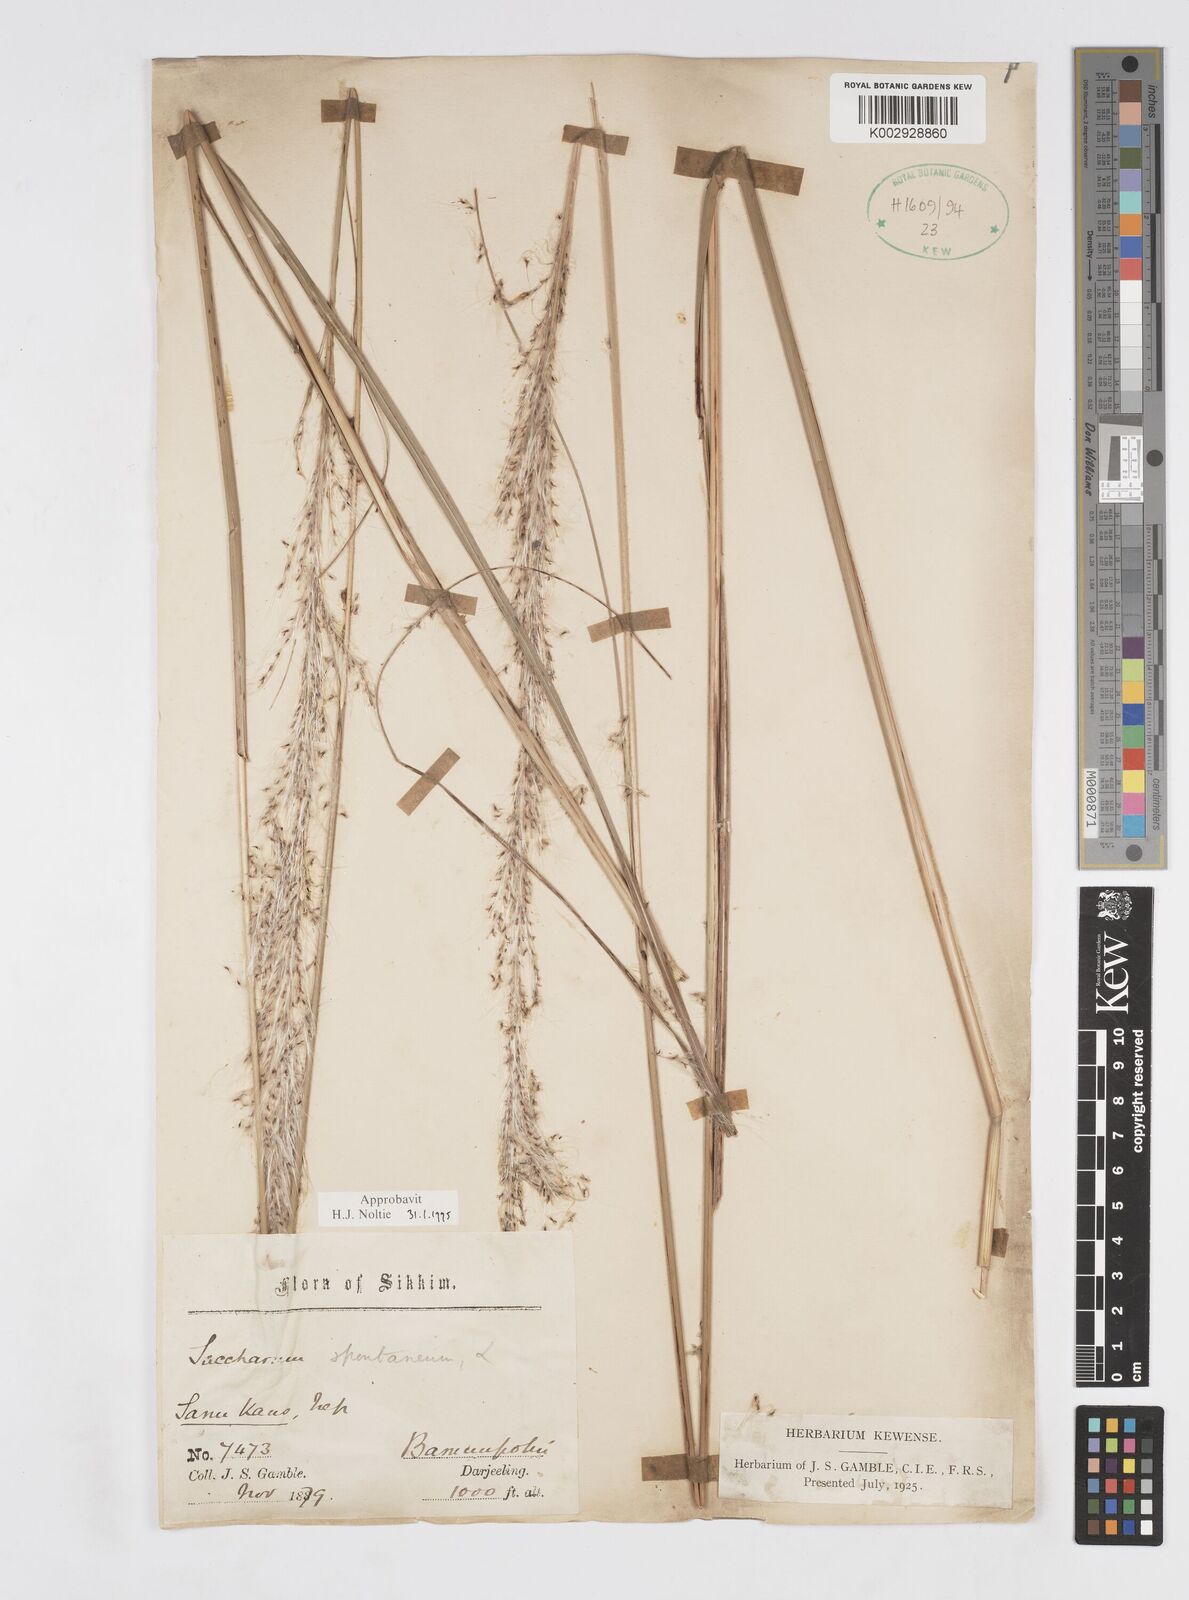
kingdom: Plantae
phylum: Tracheophyta
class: Liliopsida
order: Poales
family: Poaceae
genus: Saccharum
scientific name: Saccharum spontaneum
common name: Wild sugarcane
